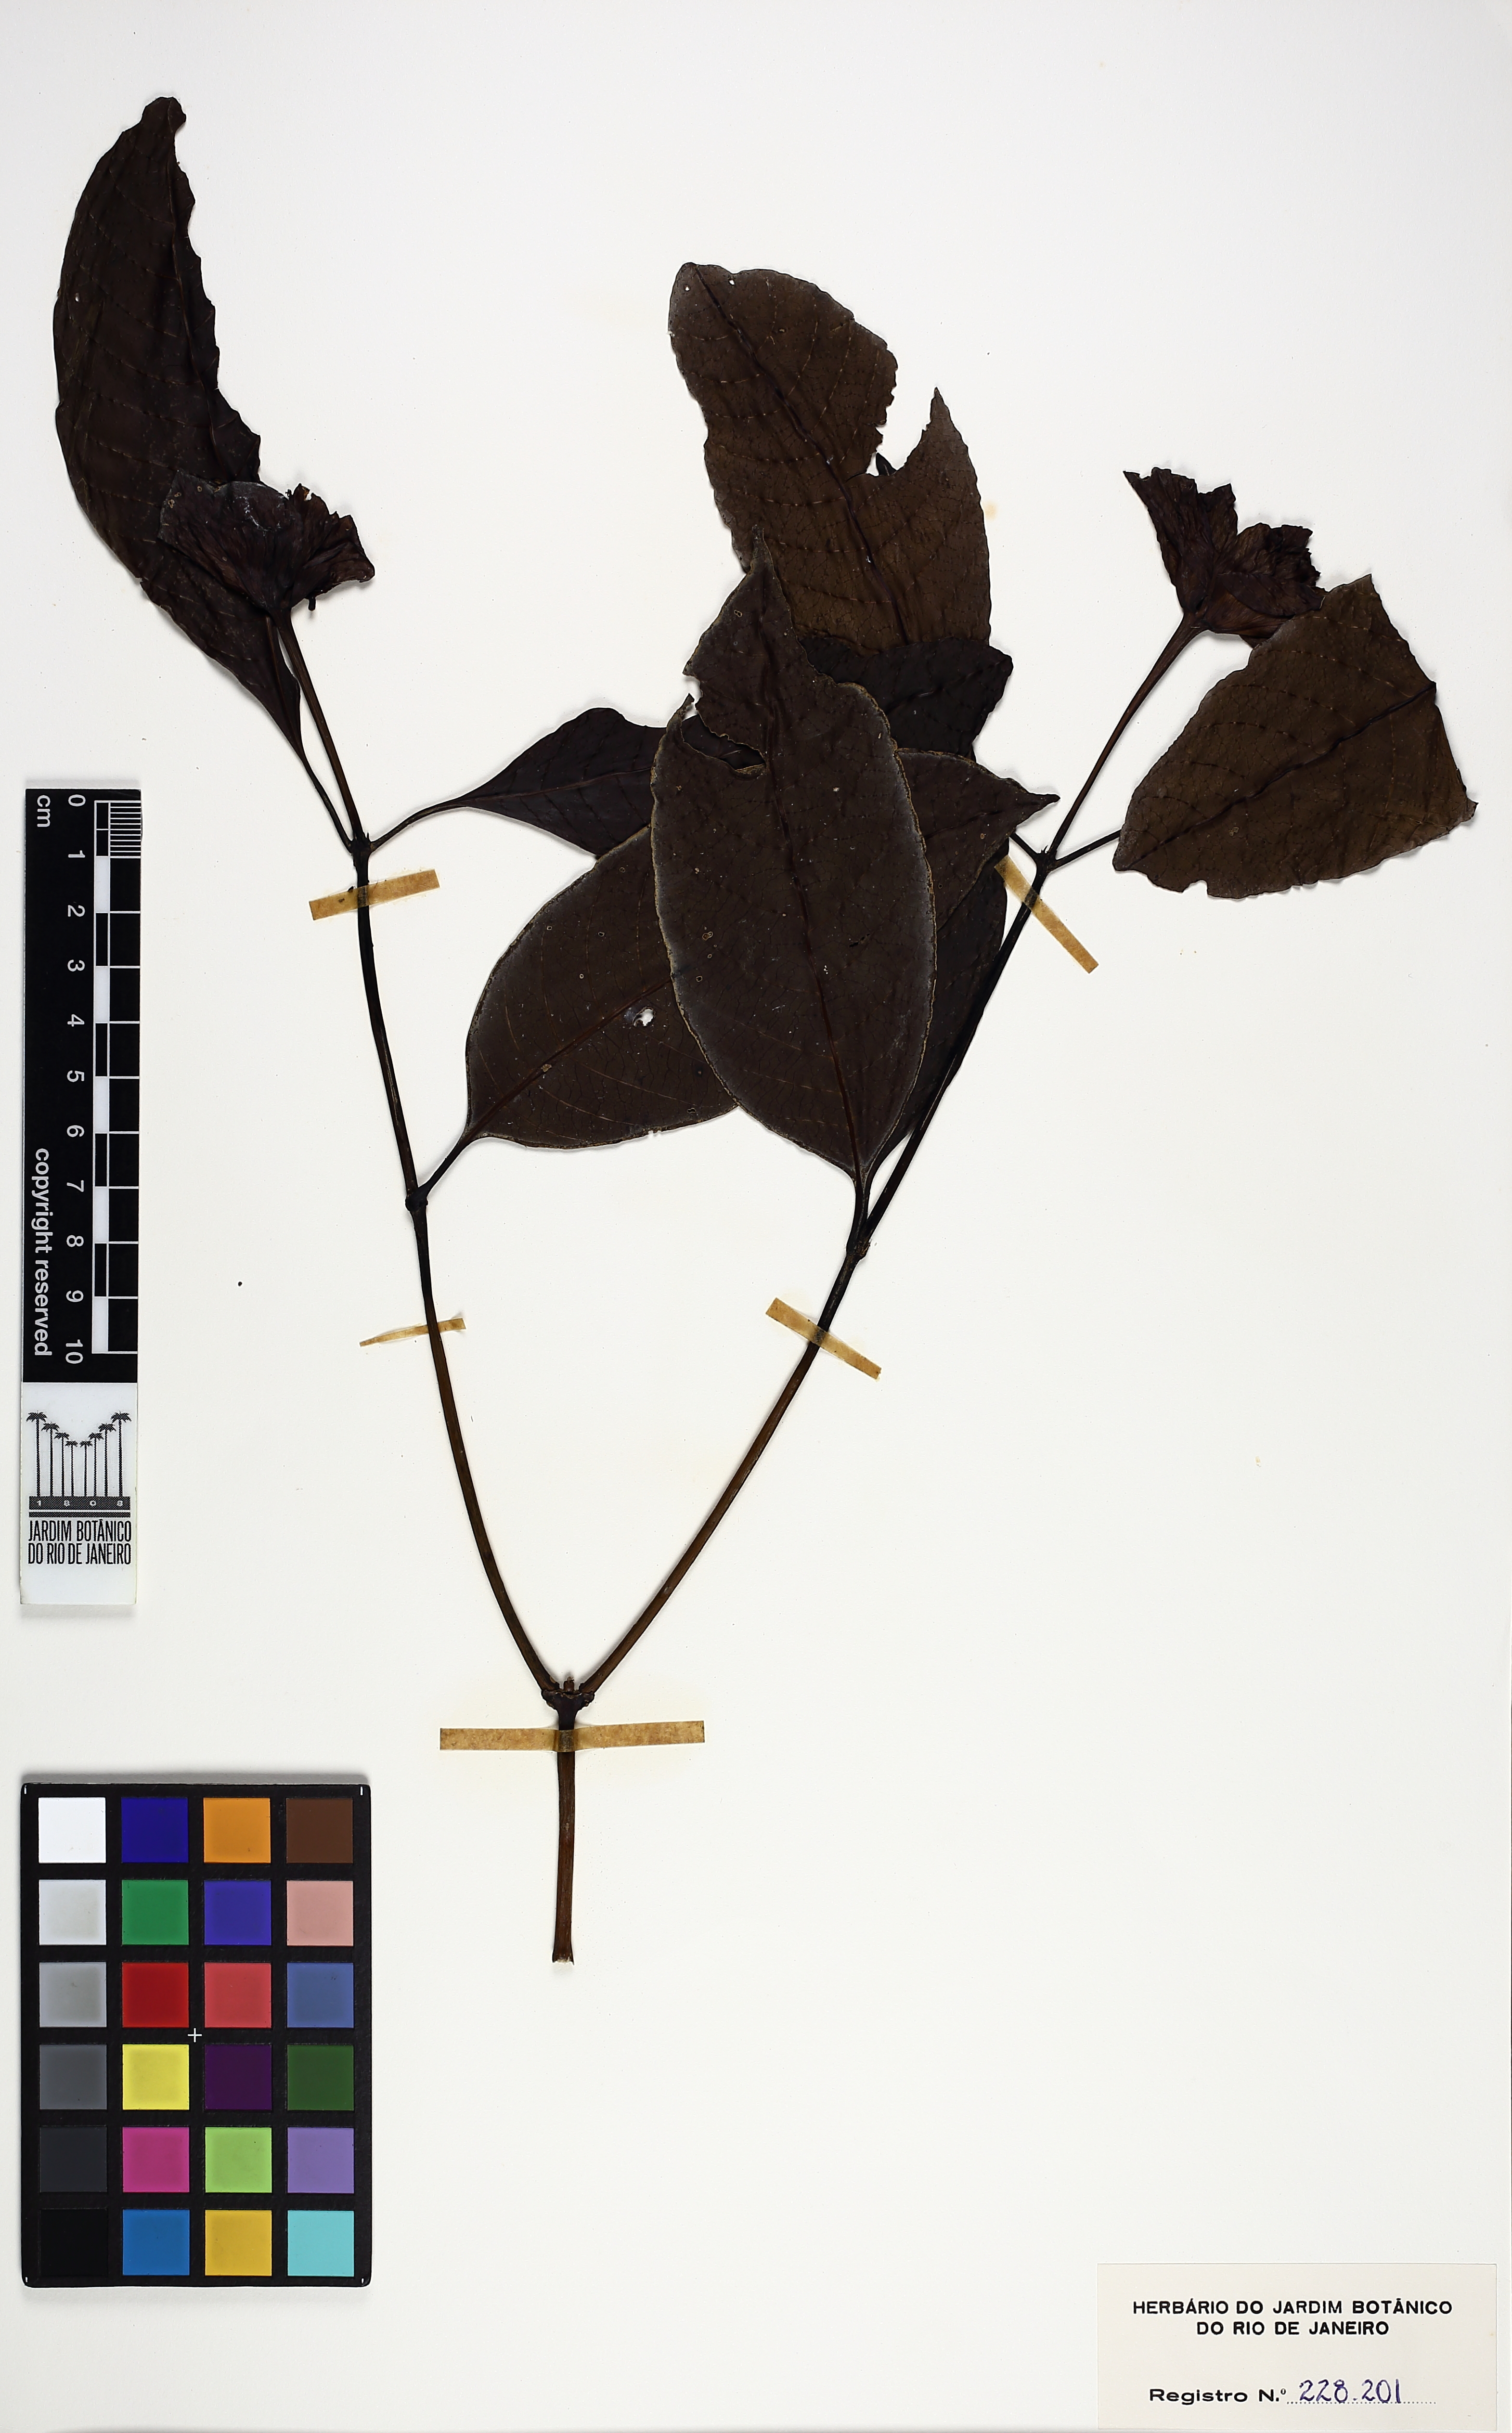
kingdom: Plantae
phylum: Tracheophyta
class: Magnoliopsida
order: Gentianales
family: Rubiaceae
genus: Psychotria
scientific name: Psychotria alto-macahensis
